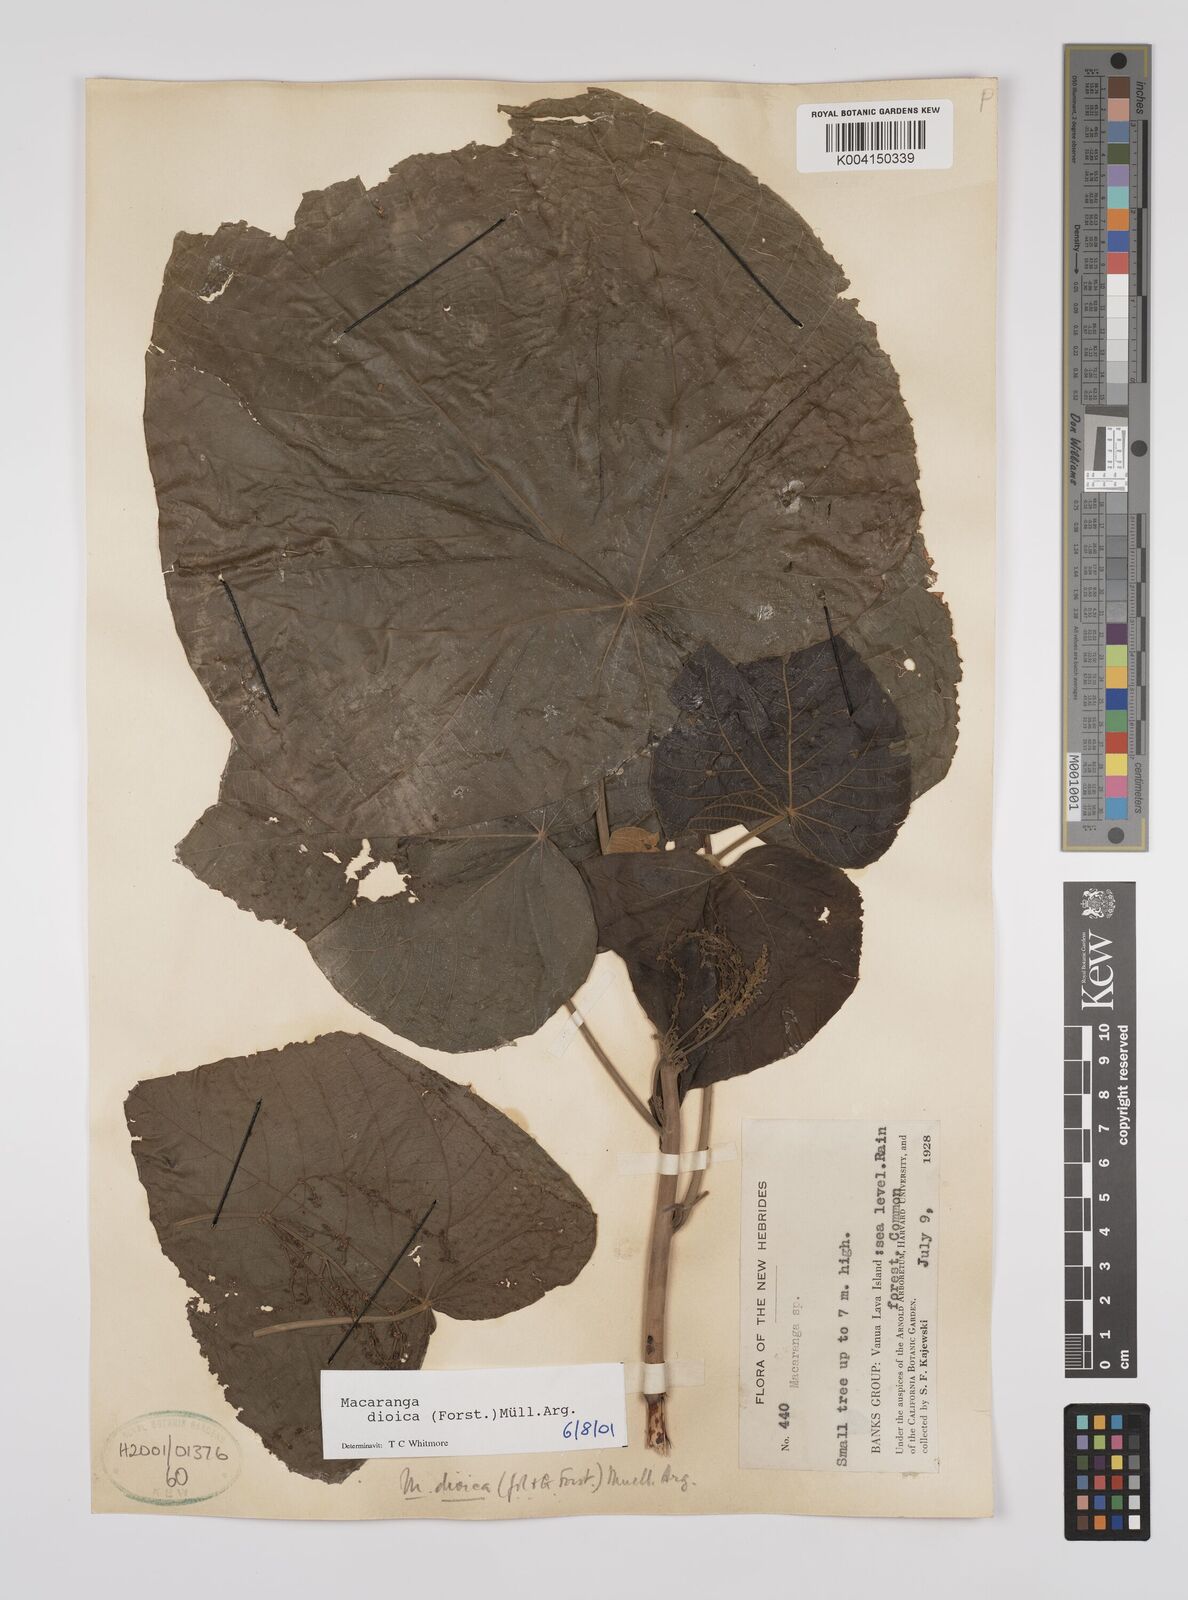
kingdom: Plantae
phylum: Tracheophyta
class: Magnoliopsida
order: Malpighiales
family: Euphorbiaceae
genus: Macaranga
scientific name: Macaranga dioica
